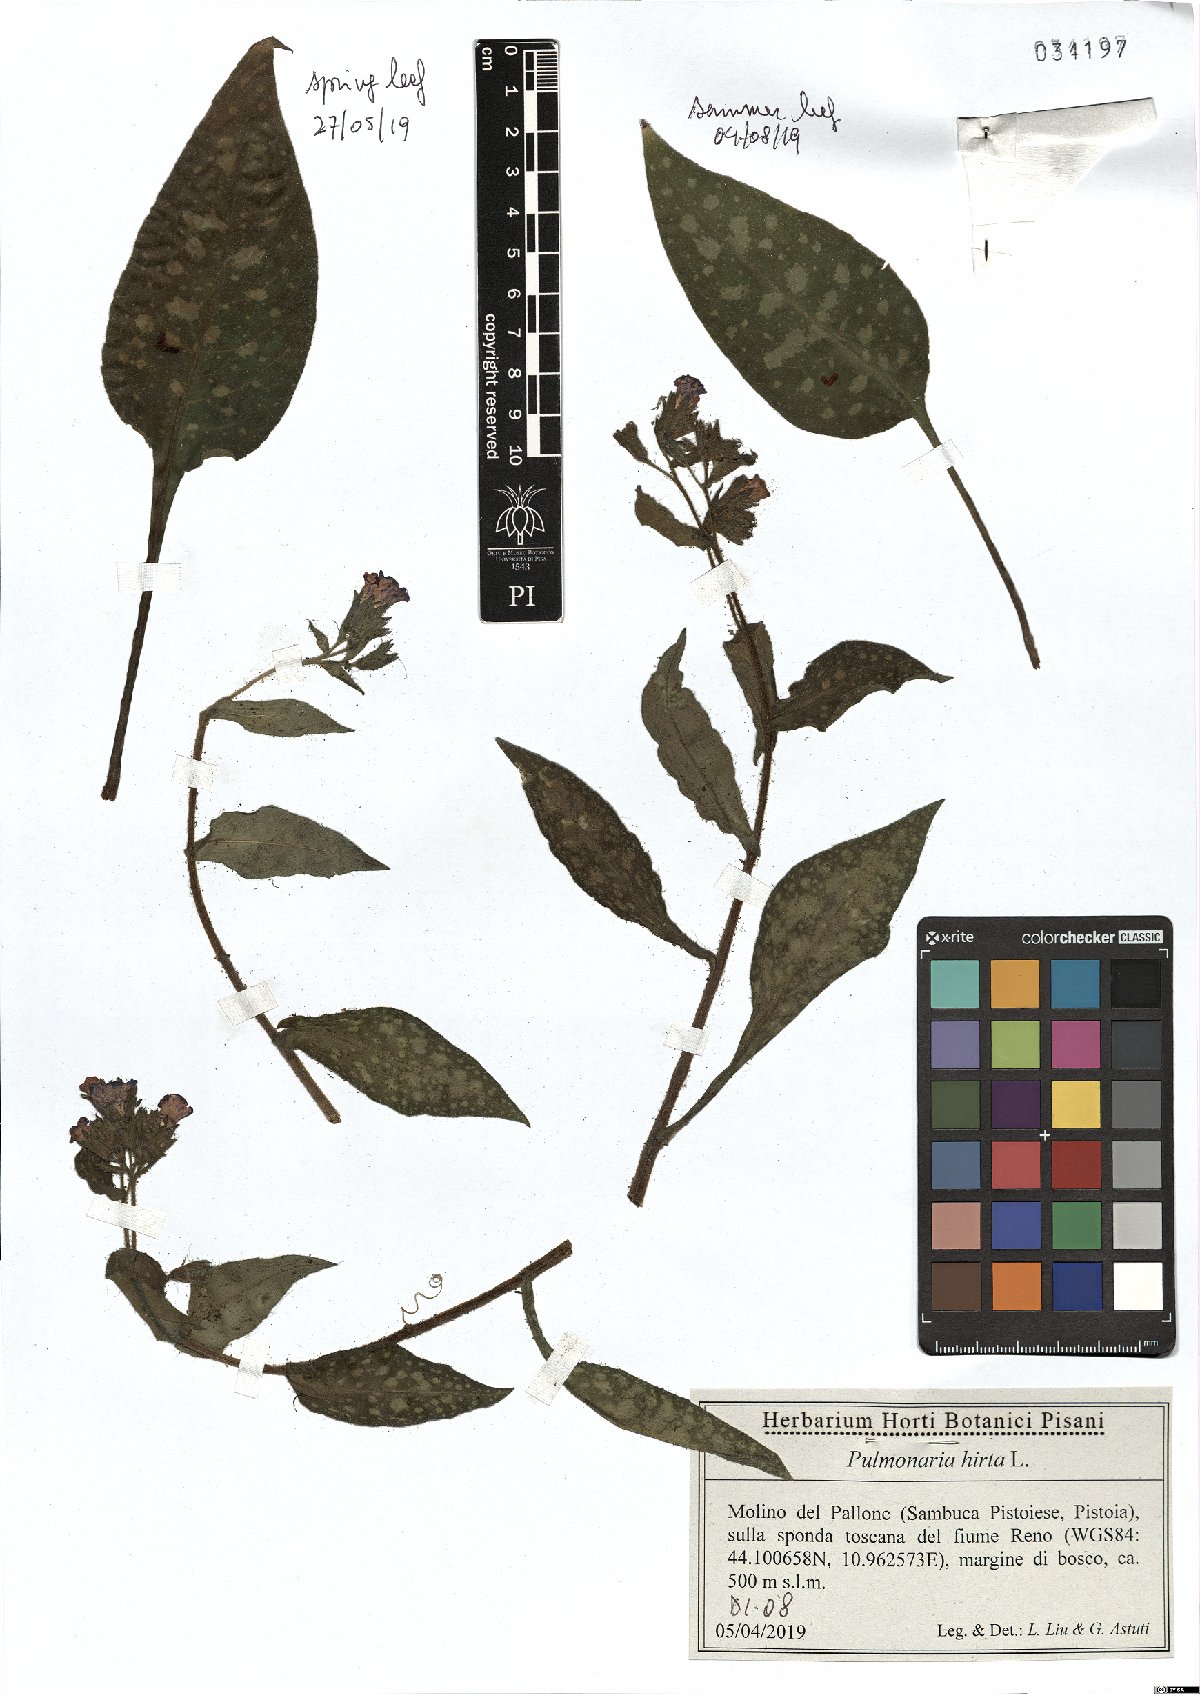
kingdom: Plantae
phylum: Tracheophyta
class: Magnoliopsida
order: Boraginales
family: Boraginaceae
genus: Pulmonaria
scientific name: Pulmonaria hirta
